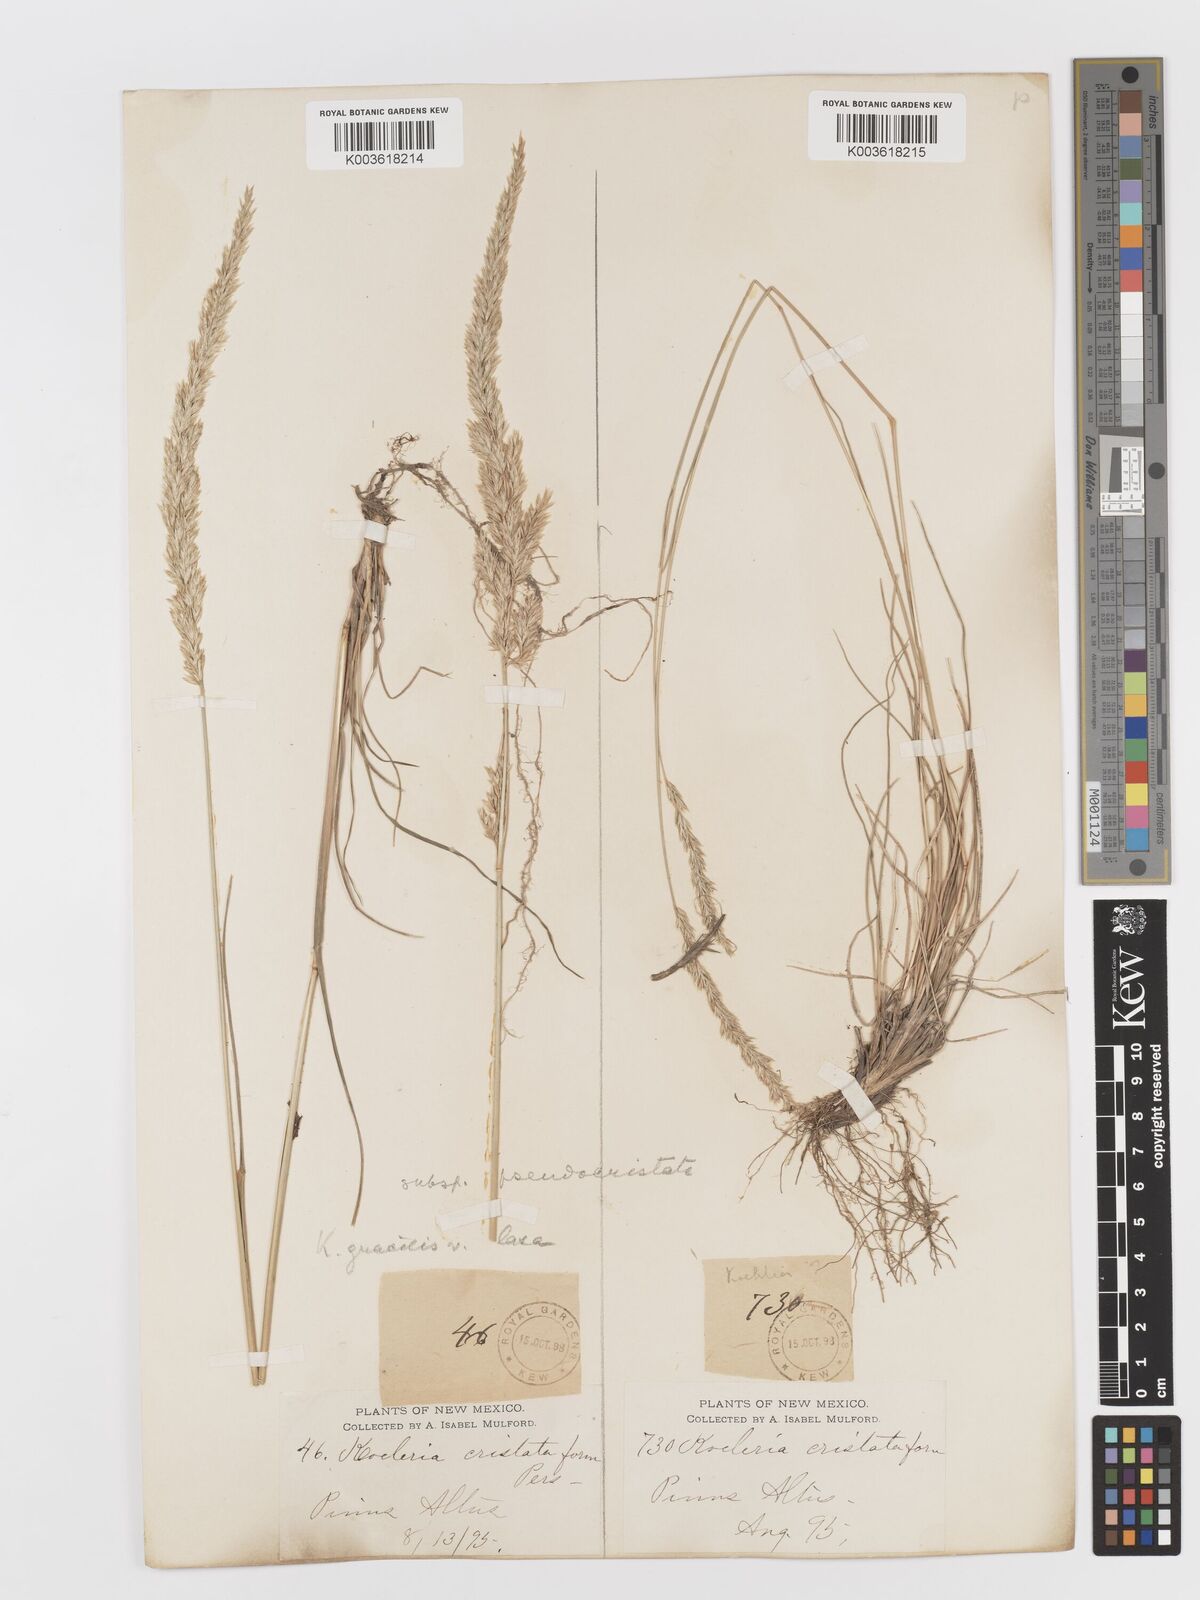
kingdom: Plantae
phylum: Tracheophyta
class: Liliopsida
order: Poales
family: Poaceae
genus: Koeleria
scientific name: Koeleria macrantha
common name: Crested hair-grass
